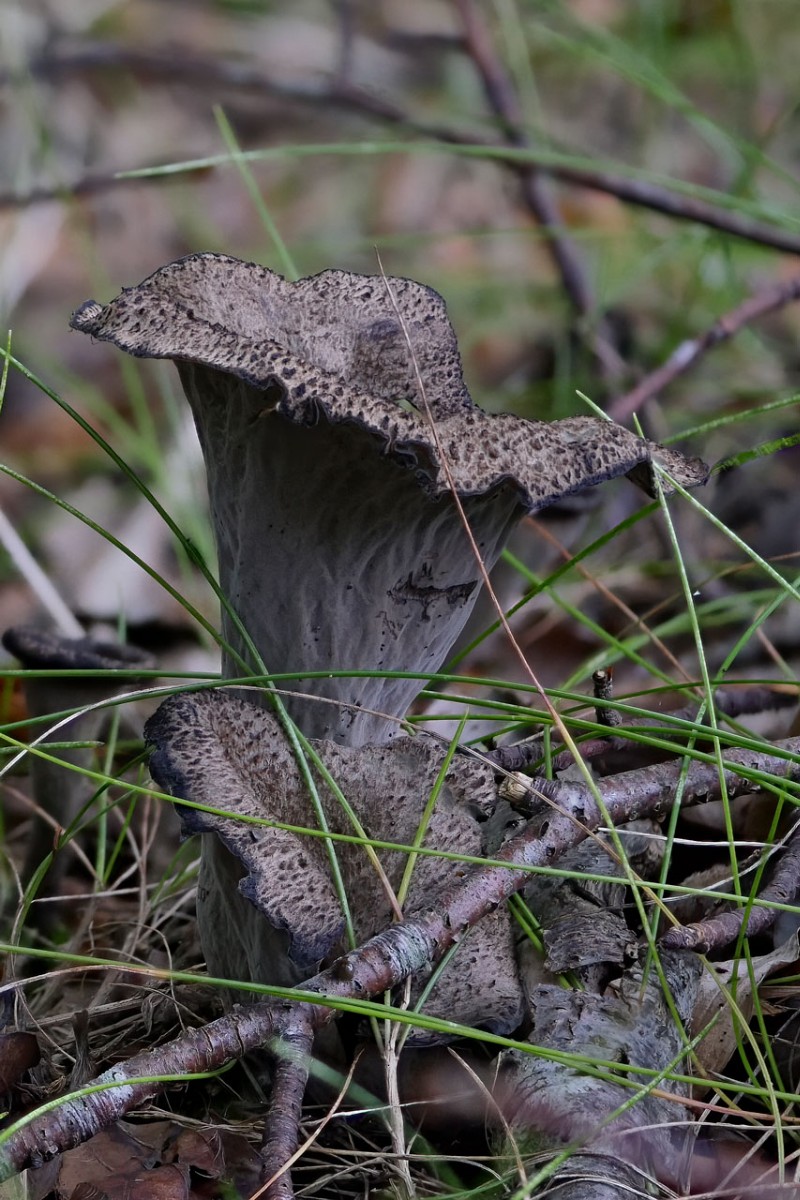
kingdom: Fungi
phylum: Basidiomycota
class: Agaricomycetes
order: Cantharellales
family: Hydnaceae
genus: Craterellus
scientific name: Craterellus cornucopioides
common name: trompetsvamp
